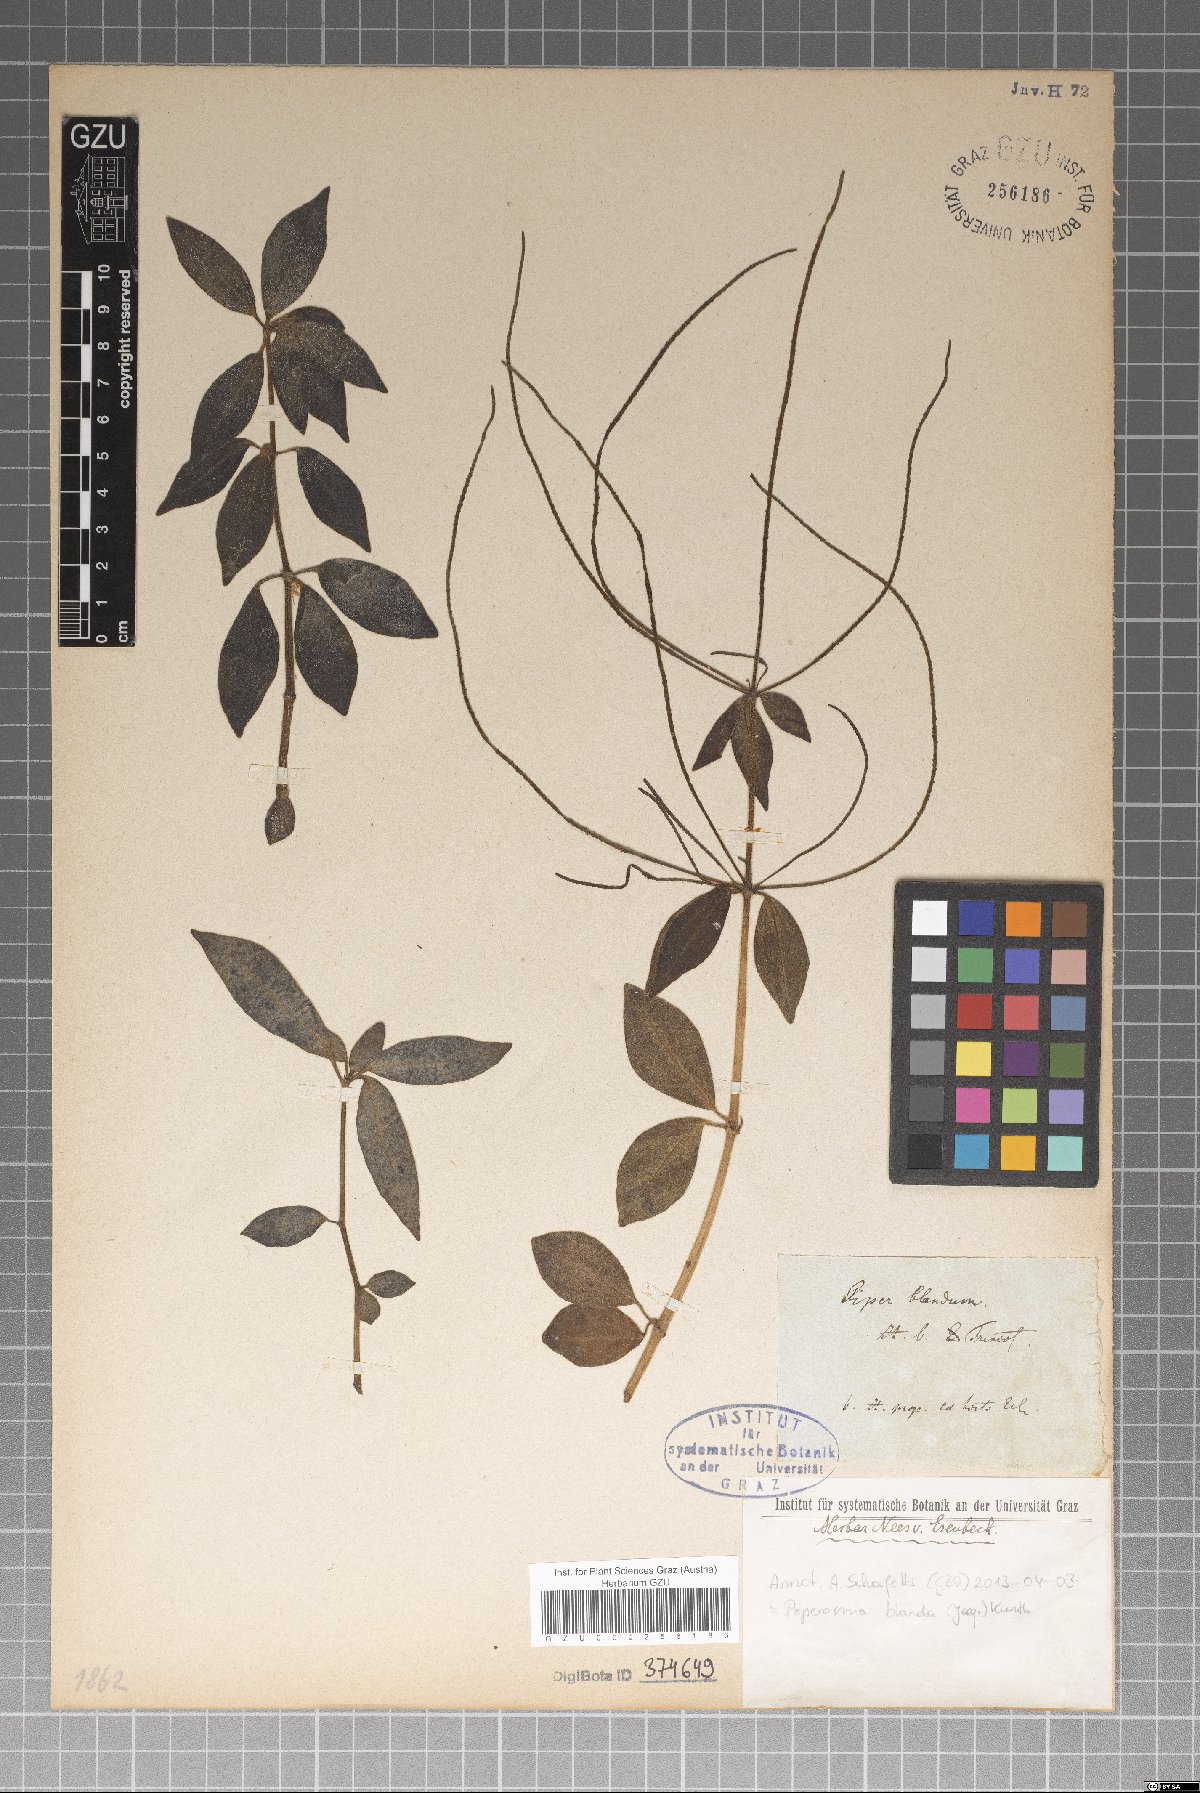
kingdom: Plantae
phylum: Tracheophyta
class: Magnoliopsida
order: Piperales
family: Piperaceae
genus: Peperomia
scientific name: Peperomia blanda
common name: Arid-land peperomia
